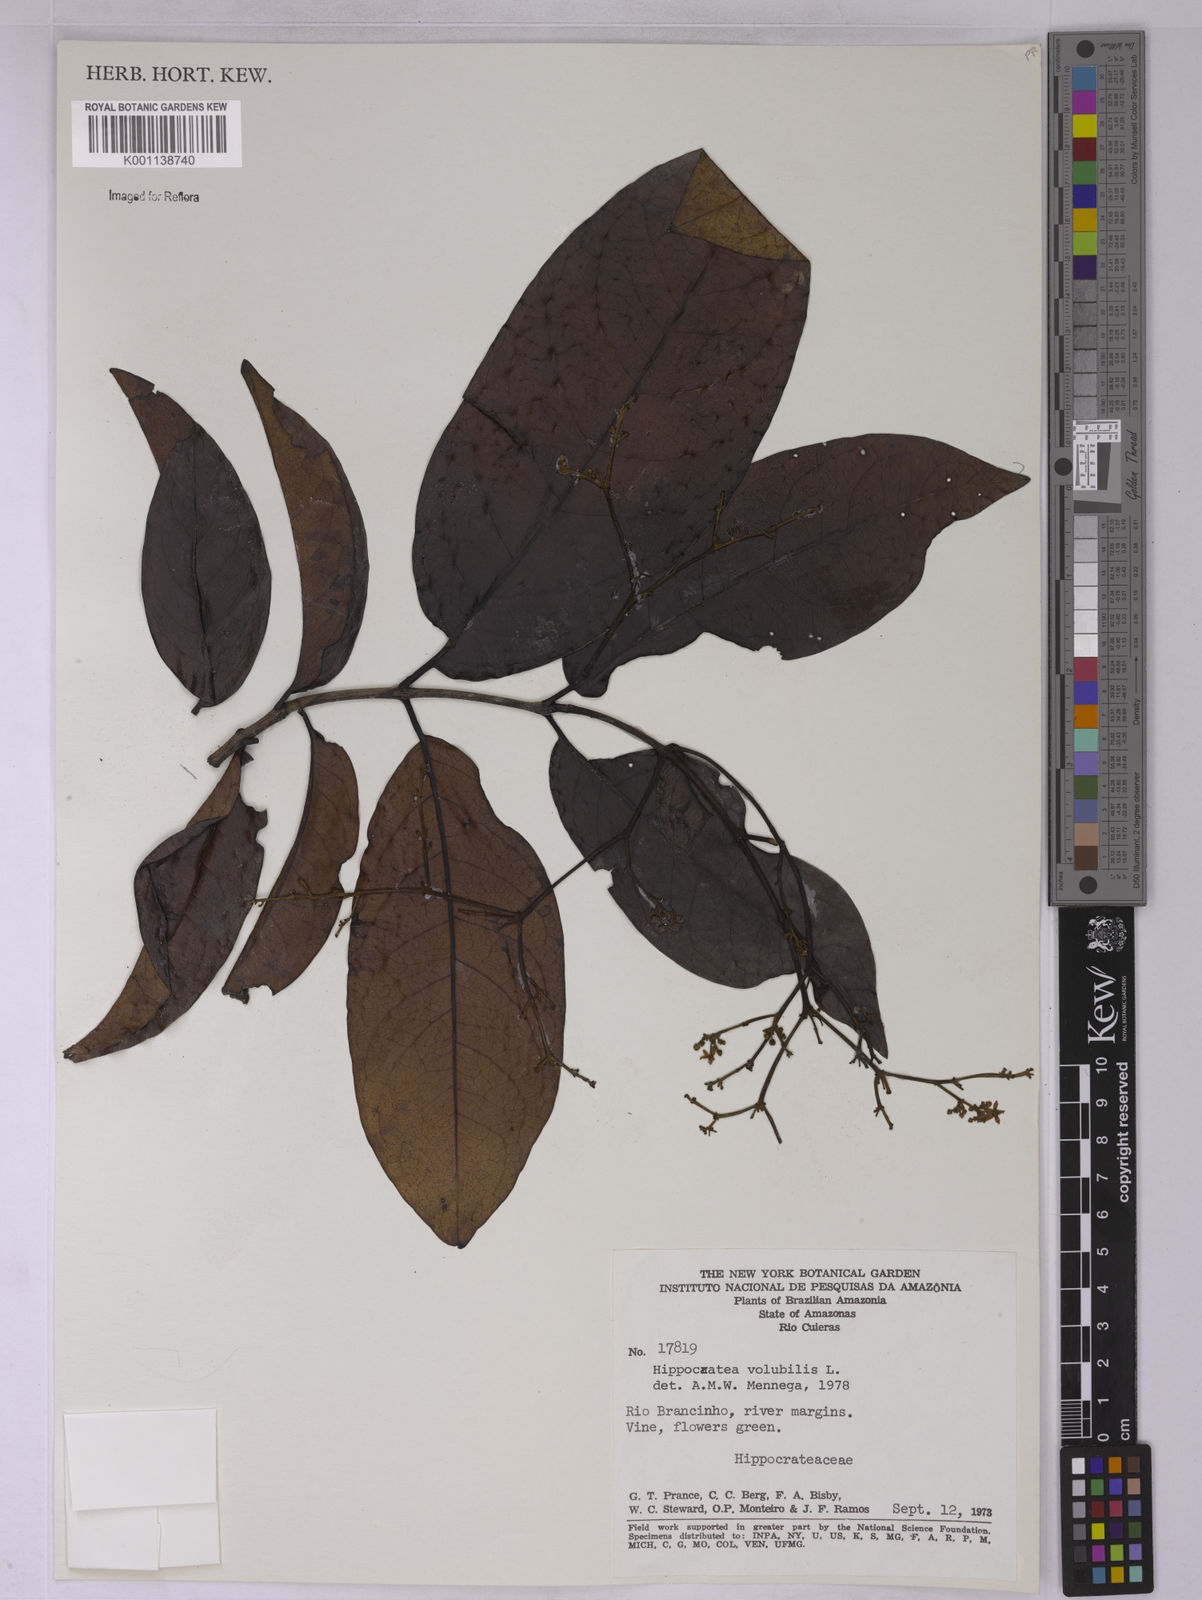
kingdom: Plantae
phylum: Tracheophyta
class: Magnoliopsida
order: Celastrales
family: Celastraceae
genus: Hippocratea
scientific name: Hippocratea volubilis
